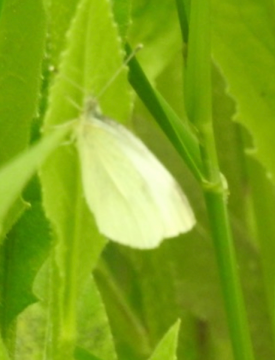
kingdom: Animalia
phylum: Arthropoda
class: Insecta
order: Lepidoptera
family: Pieridae
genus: Pieris
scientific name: Pieris rapae
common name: Cabbage White
